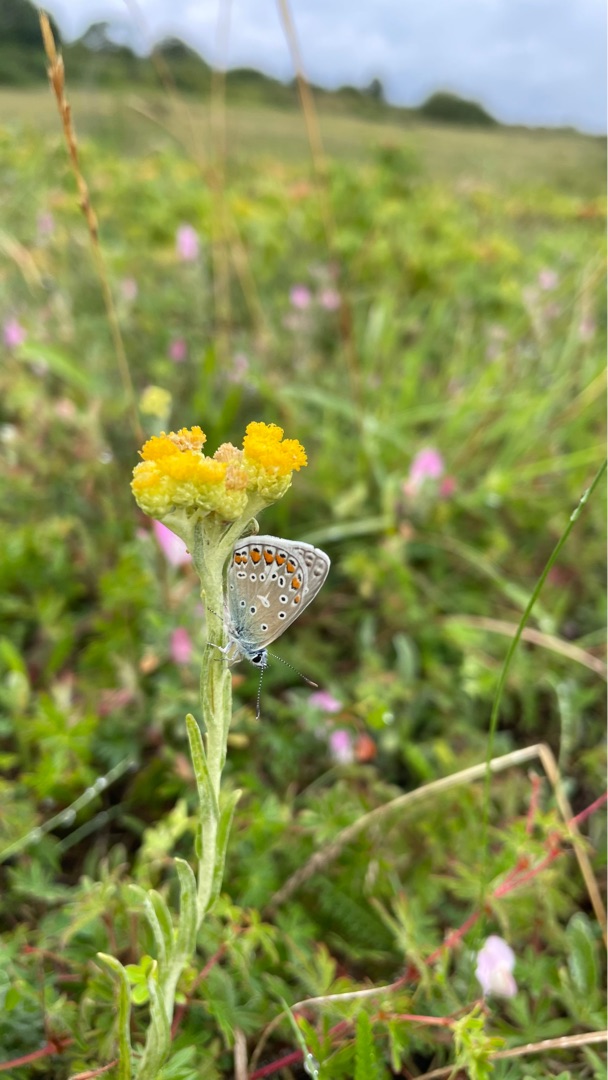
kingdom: Animalia
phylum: Arthropoda
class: Insecta
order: Lepidoptera
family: Lycaenidae
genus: Polyommatus
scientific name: Polyommatus icarus
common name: Almindelig blåfugl
